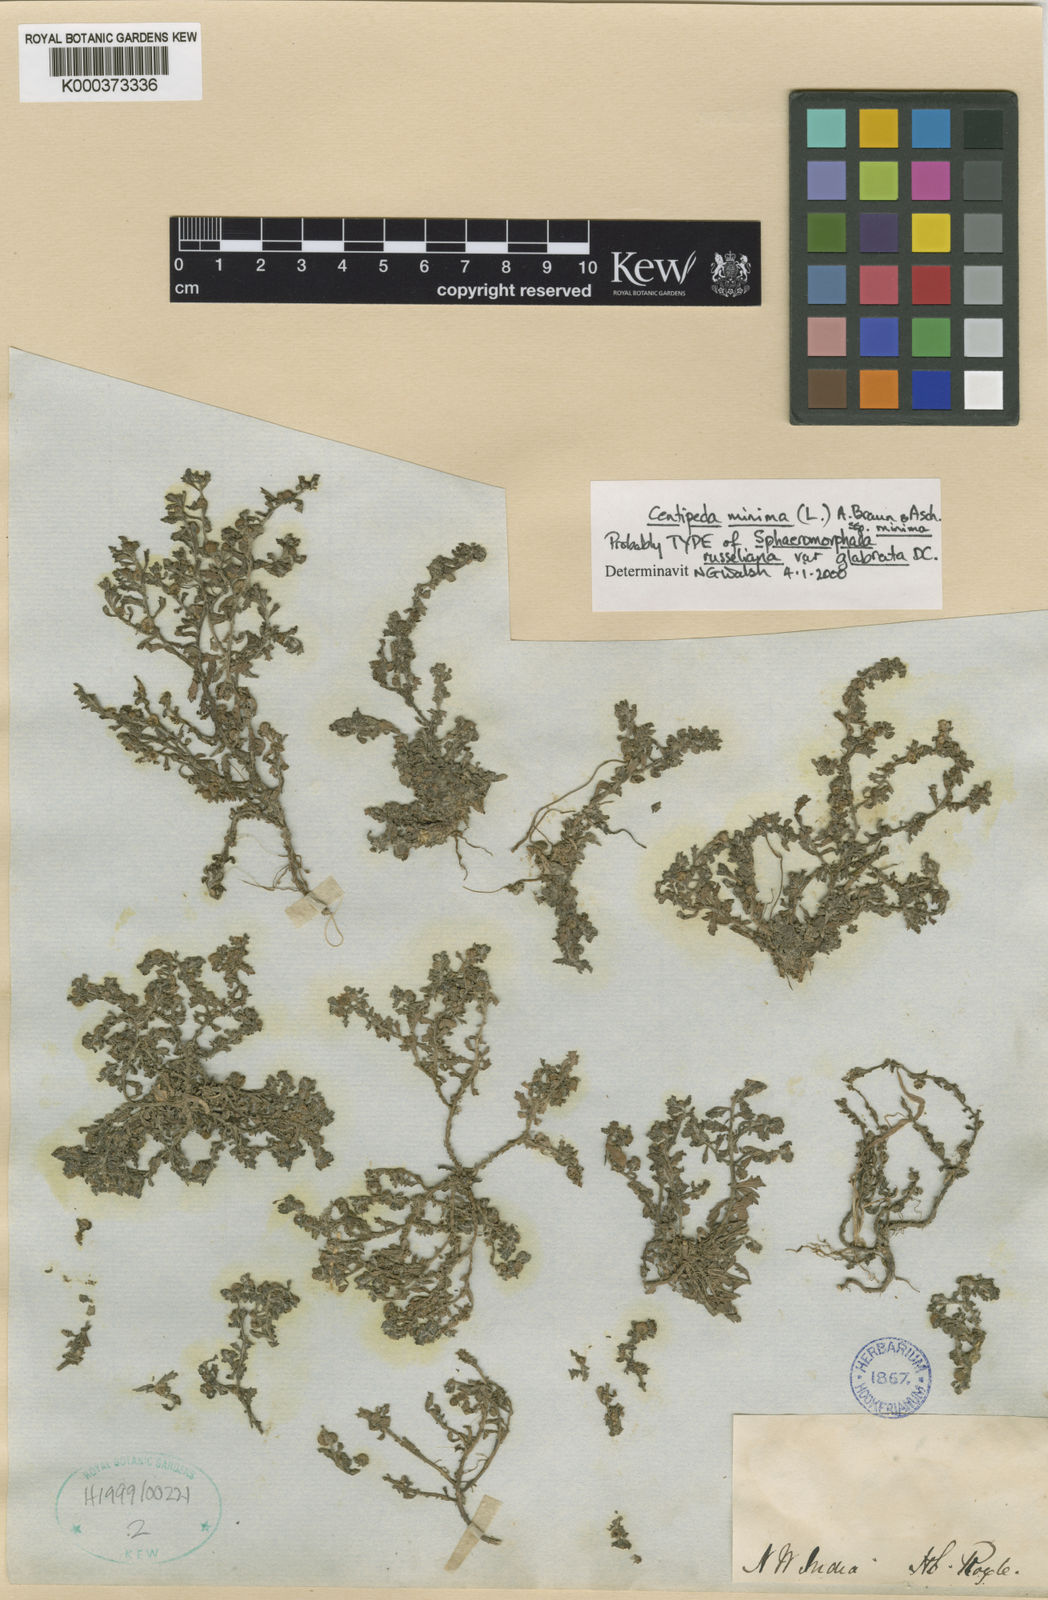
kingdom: Plantae
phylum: Tracheophyta
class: Magnoliopsida
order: Asterales
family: Asteraceae
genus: Centipeda
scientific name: Centipeda minima
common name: Spreading sneezeweed
